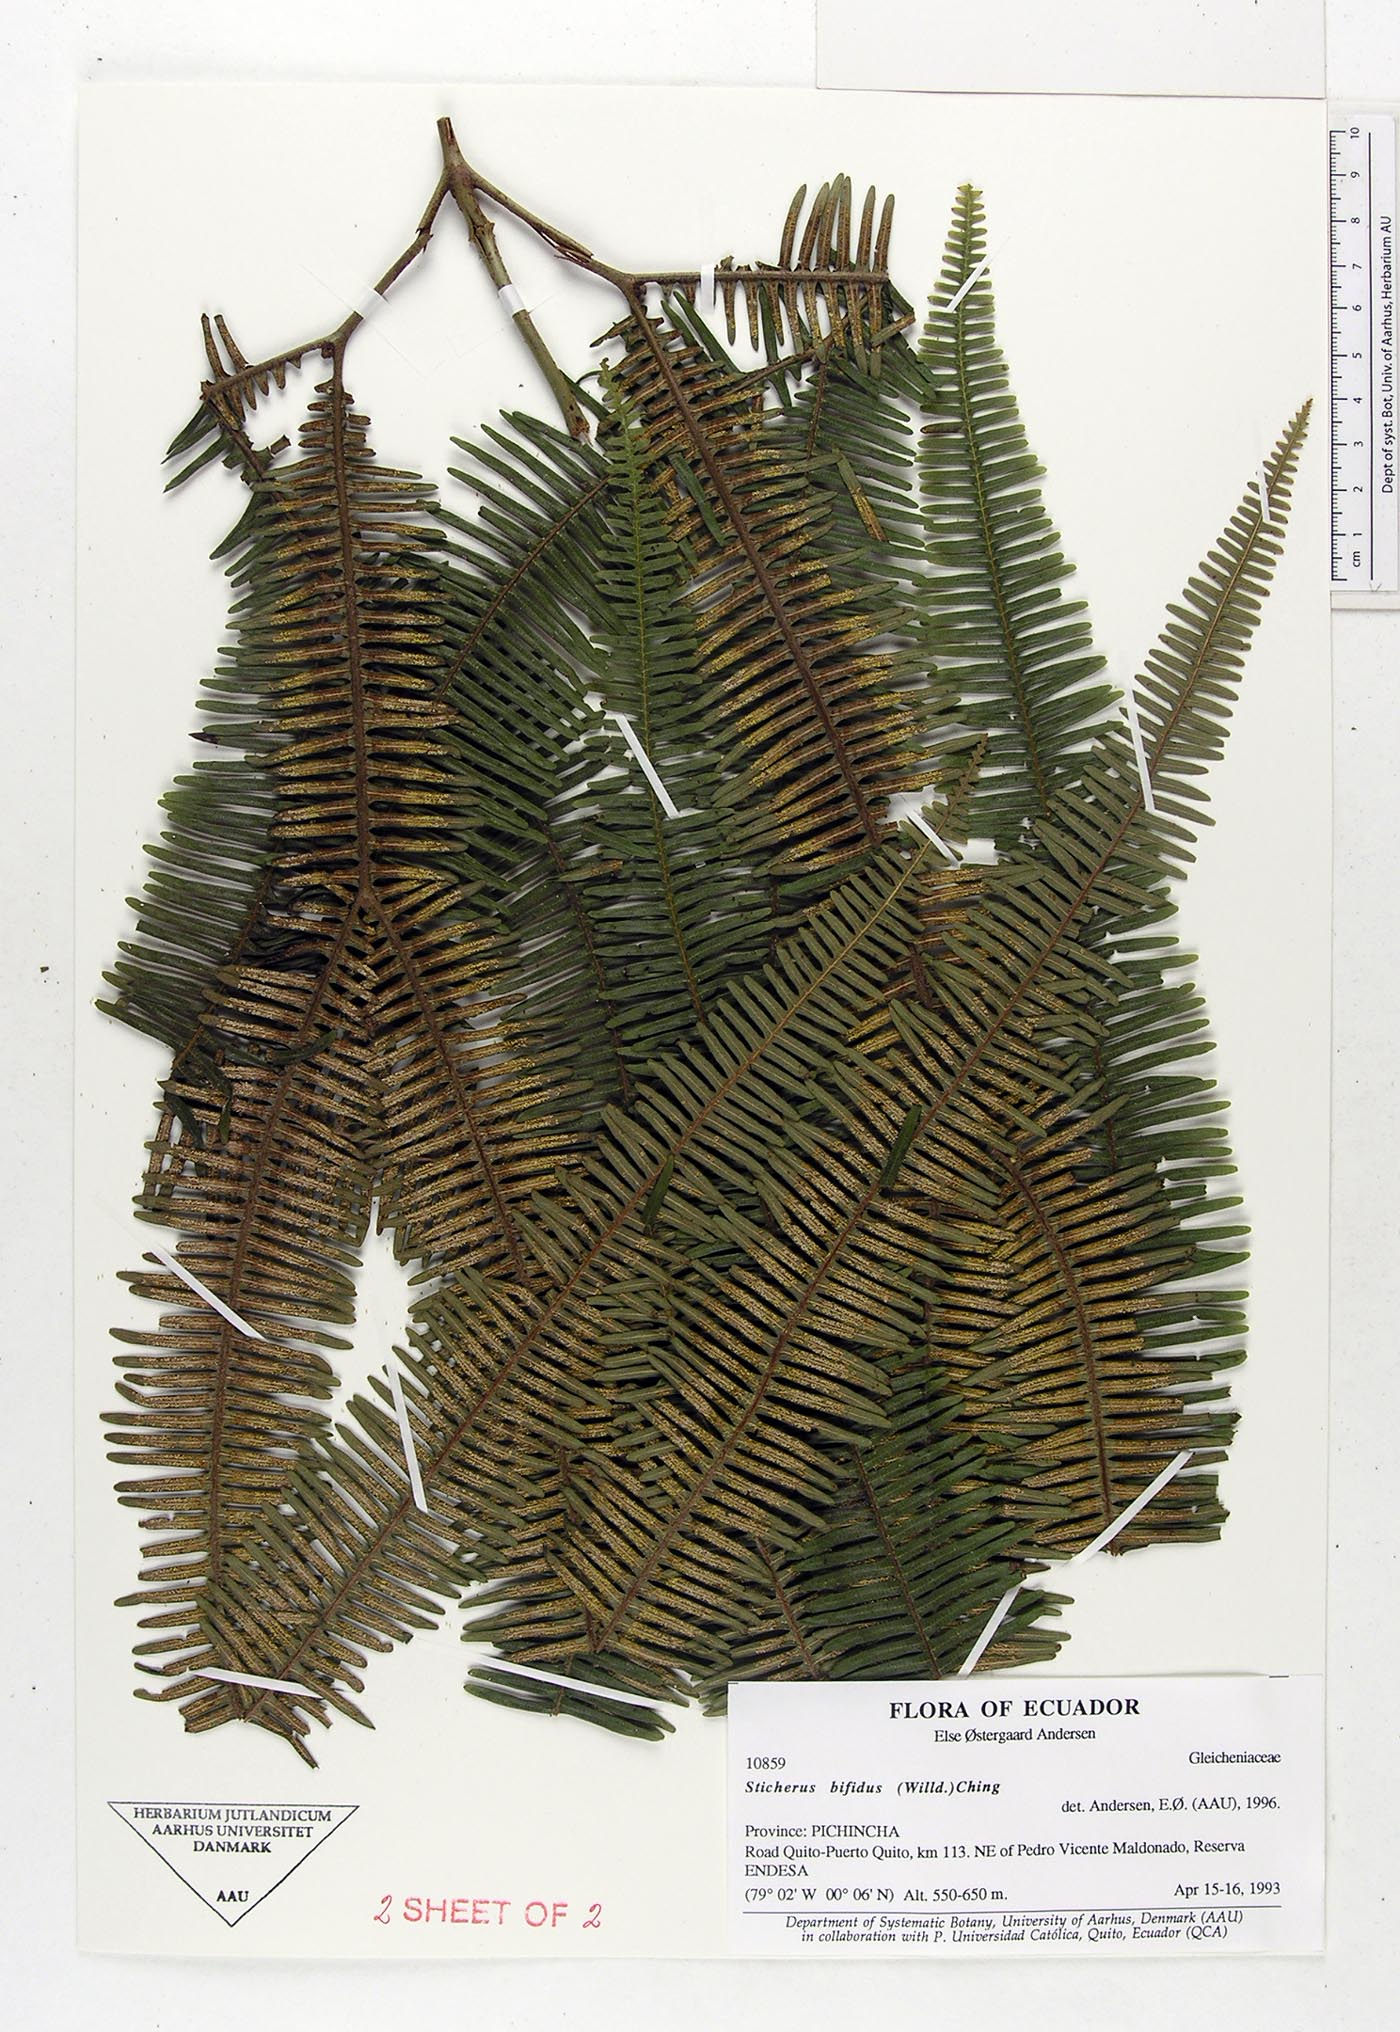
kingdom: Plantae
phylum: Tracheophyta
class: Polypodiopsida
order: Gleicheniales
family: Gleicheniaceae
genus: Sticherus
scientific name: Sticherus bifidus
